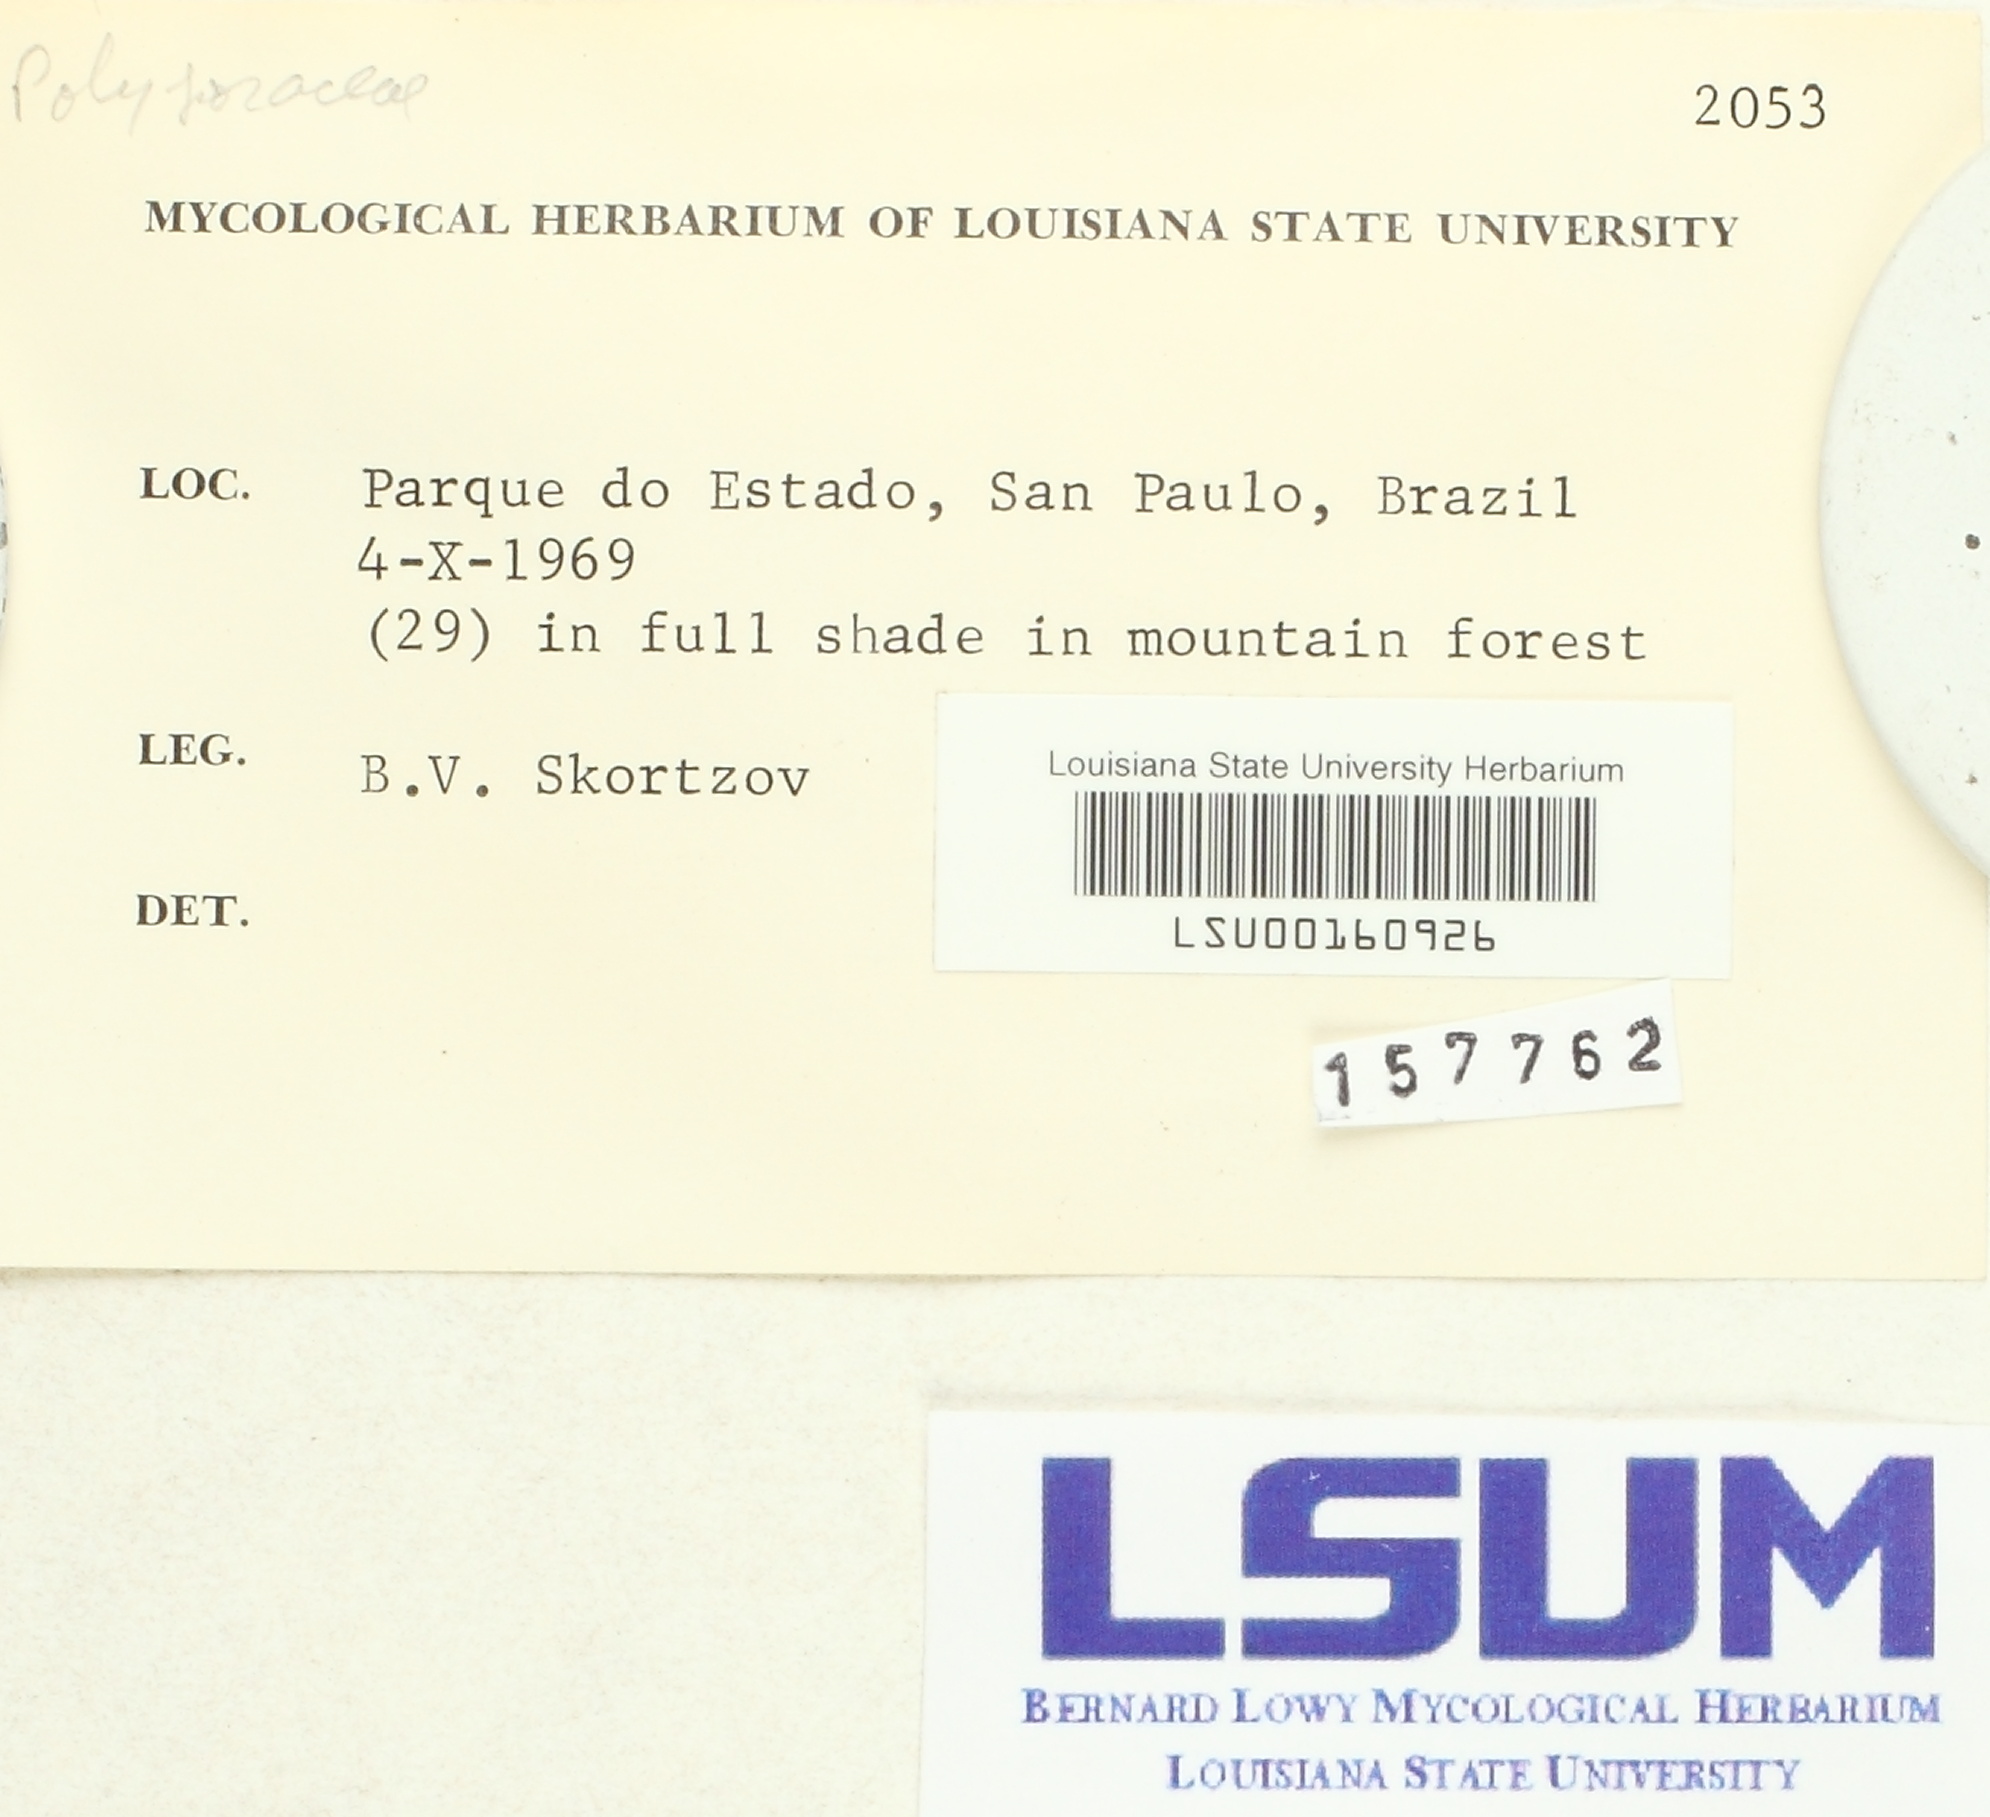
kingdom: Fungi
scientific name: Fungi
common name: Fungi
